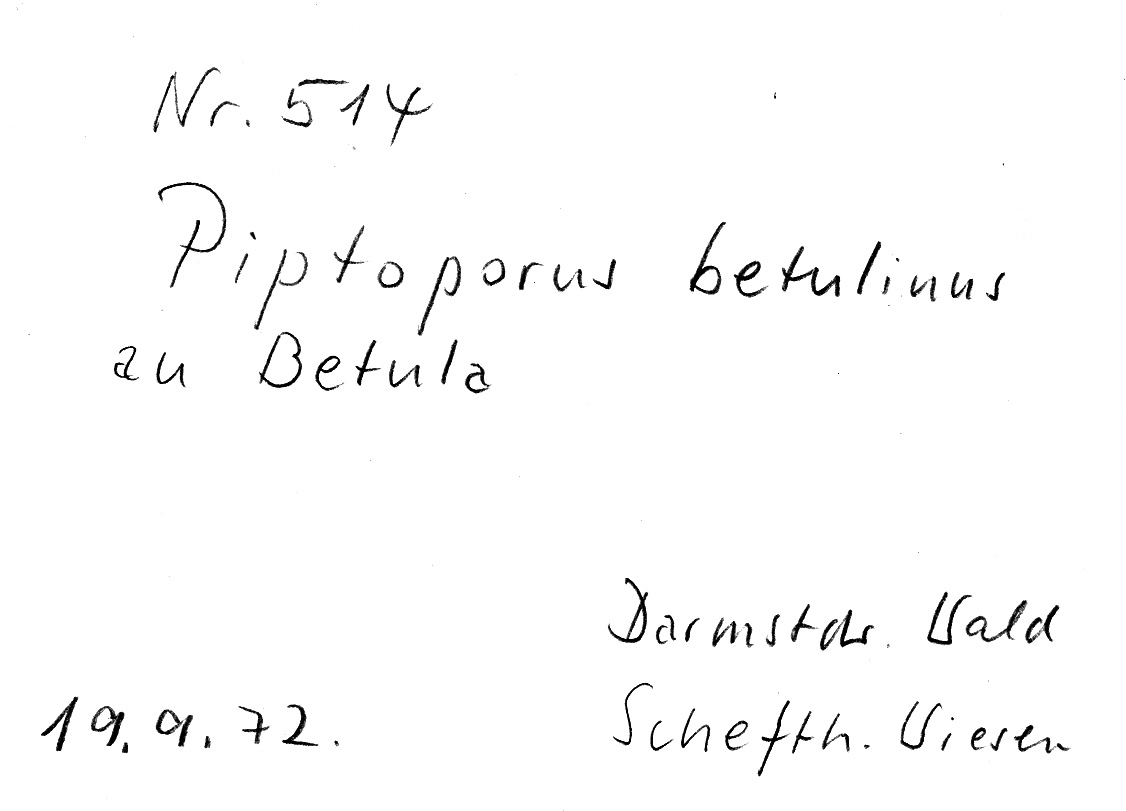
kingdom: Plantae
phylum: Tracheophyta
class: Magnoliopsida
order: Fagales
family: Betulaceae
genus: Betula
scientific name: Betula
